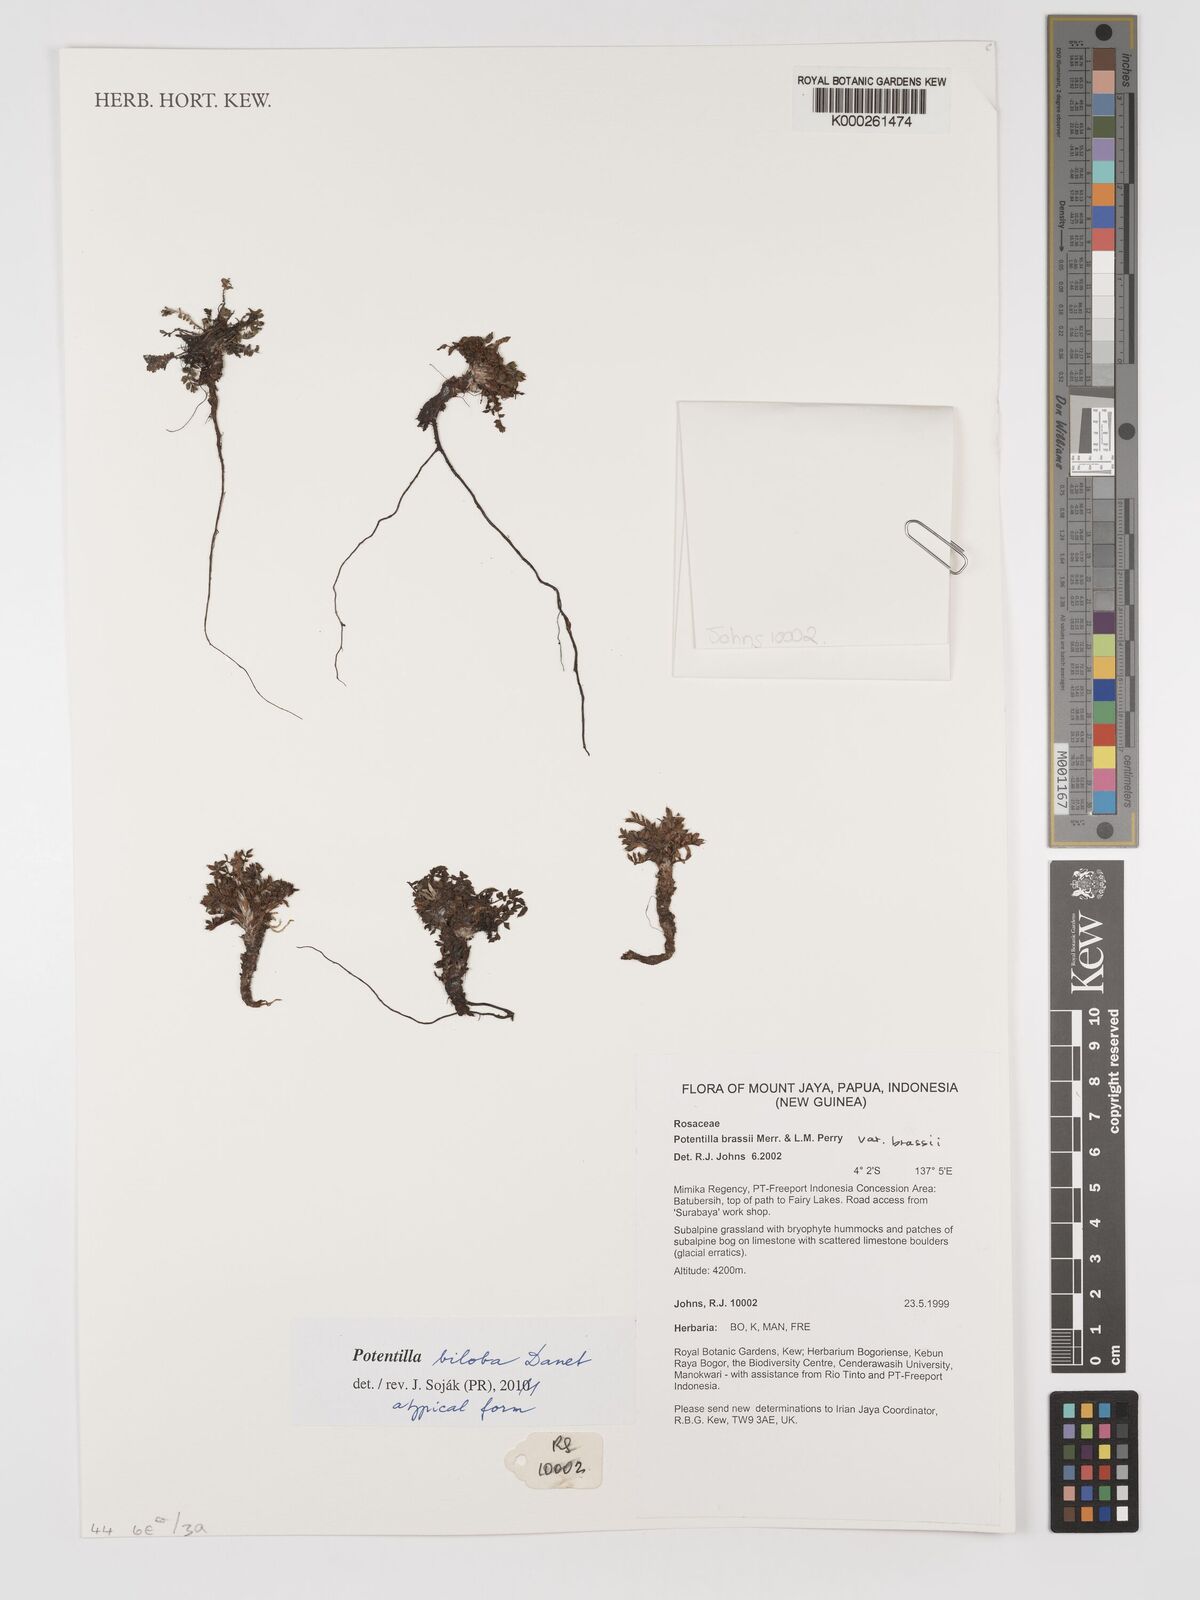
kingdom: Plantae
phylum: Tracheophyta
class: Magnoliopsida
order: Rosales
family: Rosaceae
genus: Argentina
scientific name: Argentina biloba
